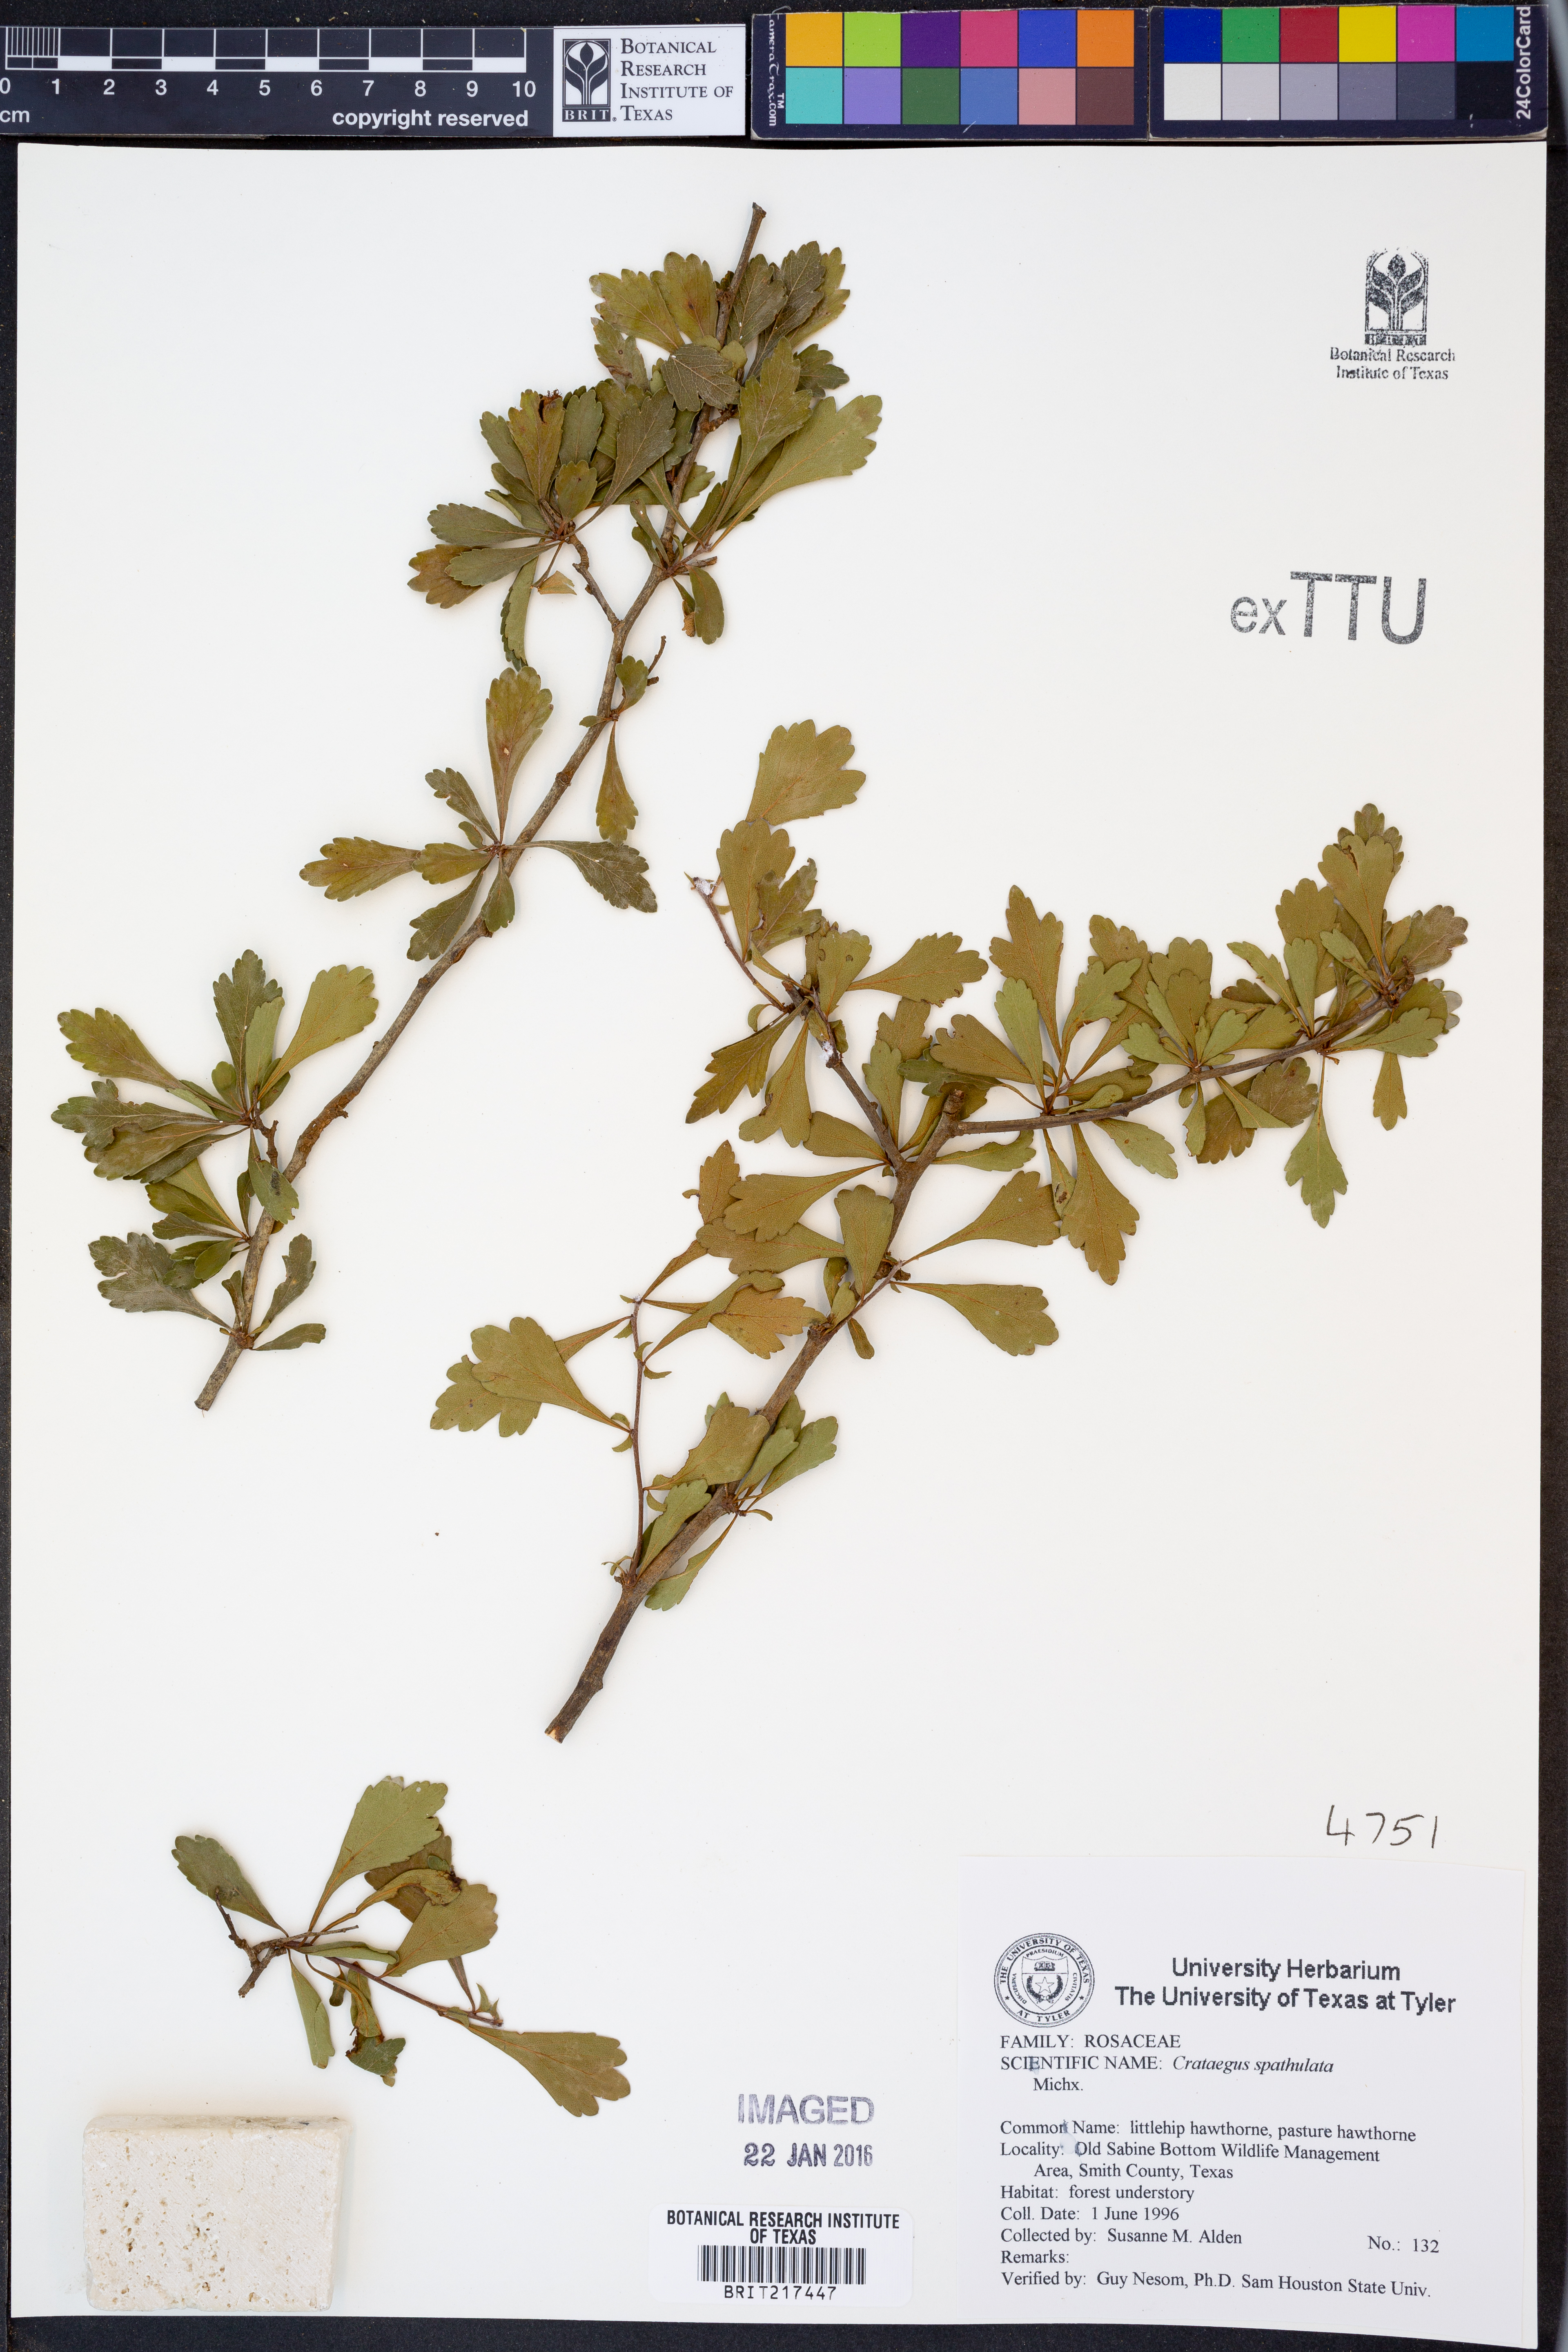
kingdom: Plantae
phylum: Tracheophyta
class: Magnoliopsida
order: Rosales
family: Rosaceae
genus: Crataegus
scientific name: Crataegus spathulata
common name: Littlehip hawthorn
